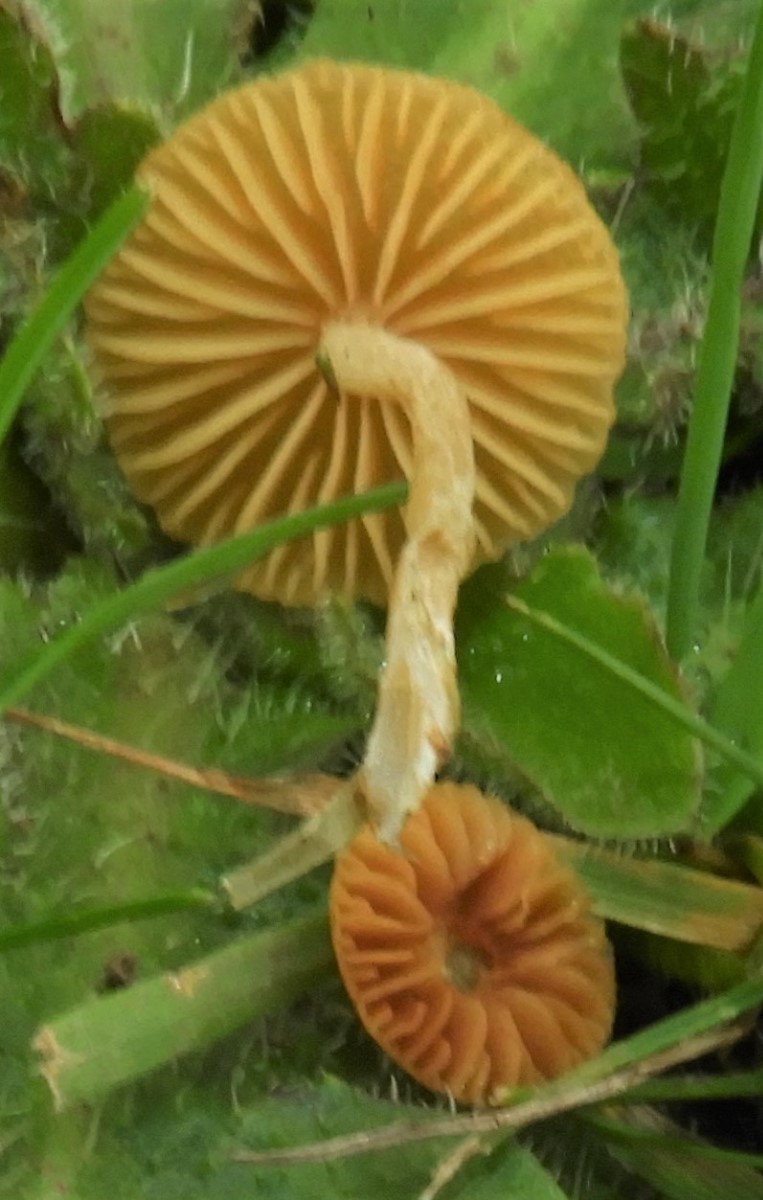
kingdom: Fungi
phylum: Basidiomycota
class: Agaricomycetes
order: Agaricales
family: Hymenogastraceae
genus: Galerina
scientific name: Galerina
